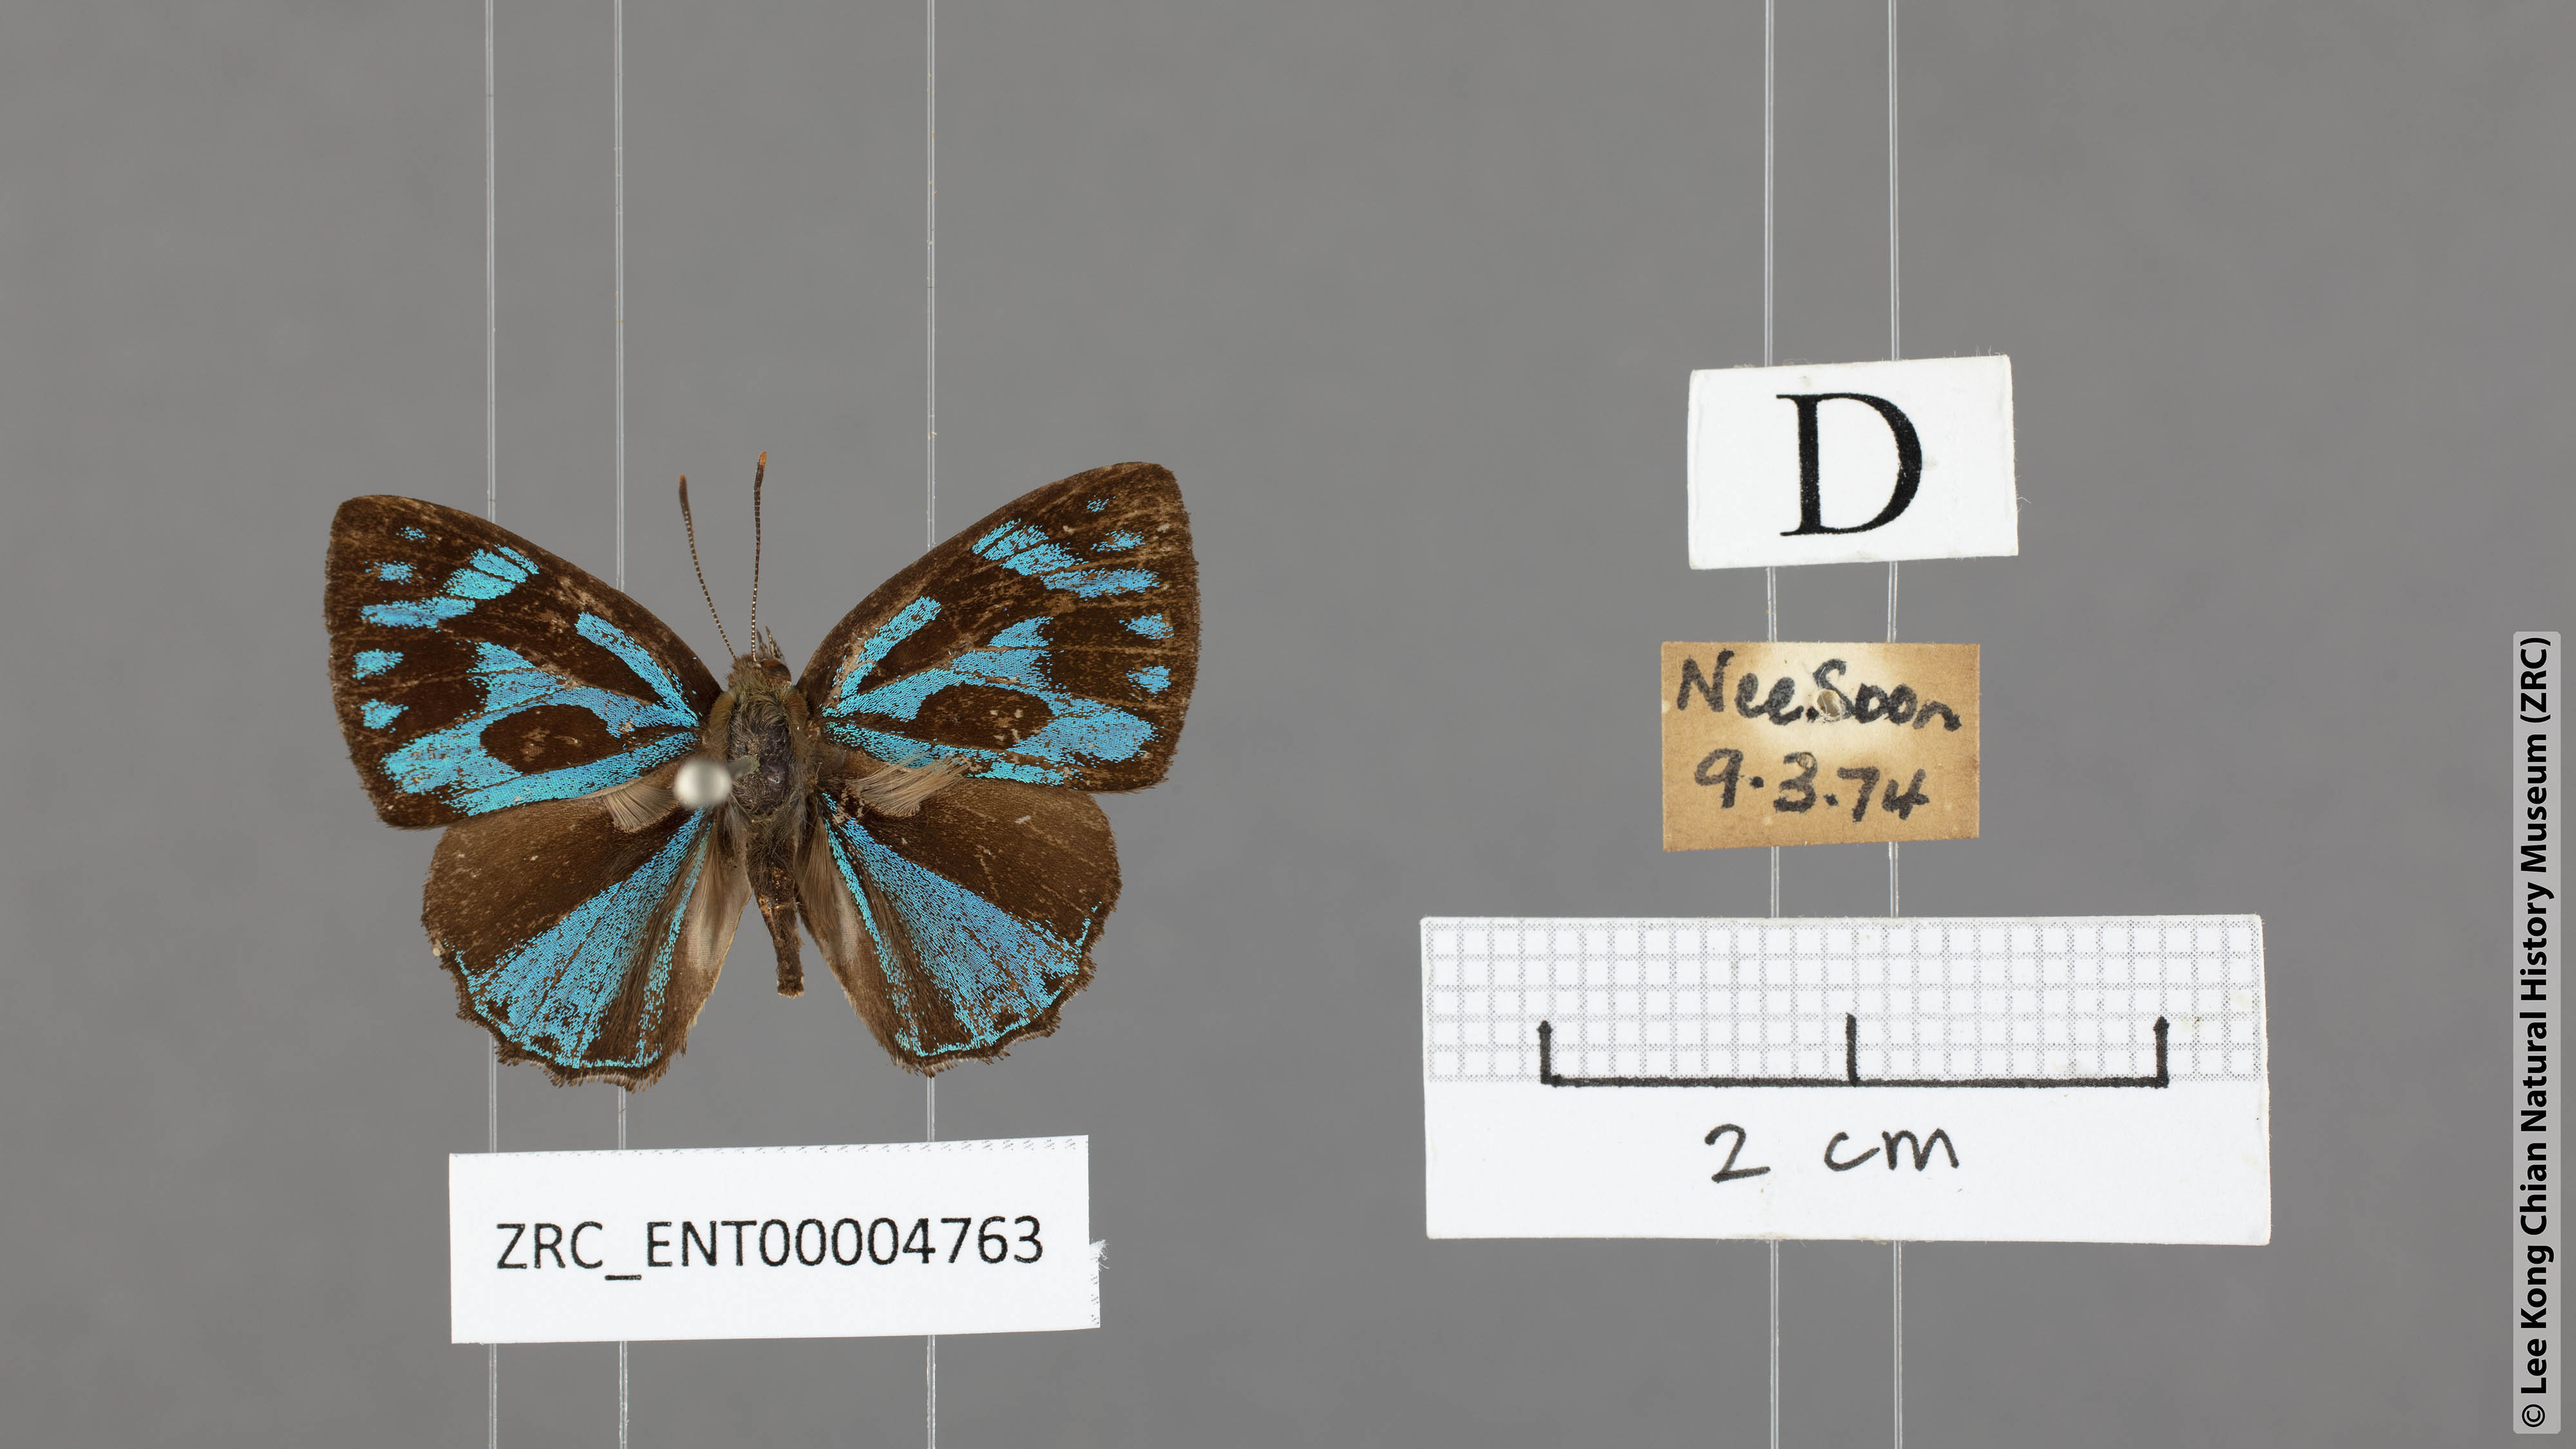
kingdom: Animalia
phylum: Arthropoda
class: Insecta
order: Lepidoptera
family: Lycaenidae
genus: Poritia
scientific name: Poritia philota
